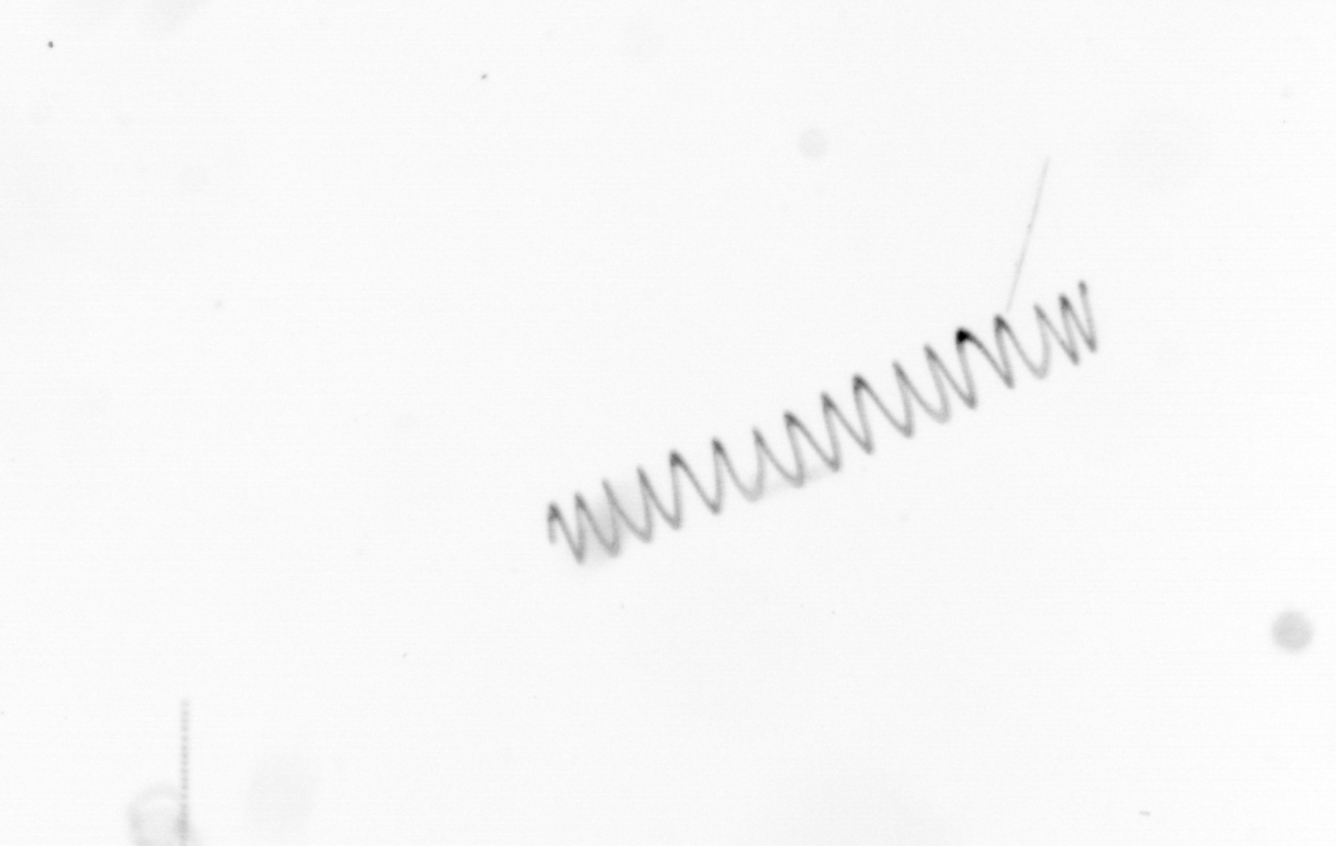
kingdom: Chromista
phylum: Ochrophyta
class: Bacillariophyceae
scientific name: Bacillariophyceae
